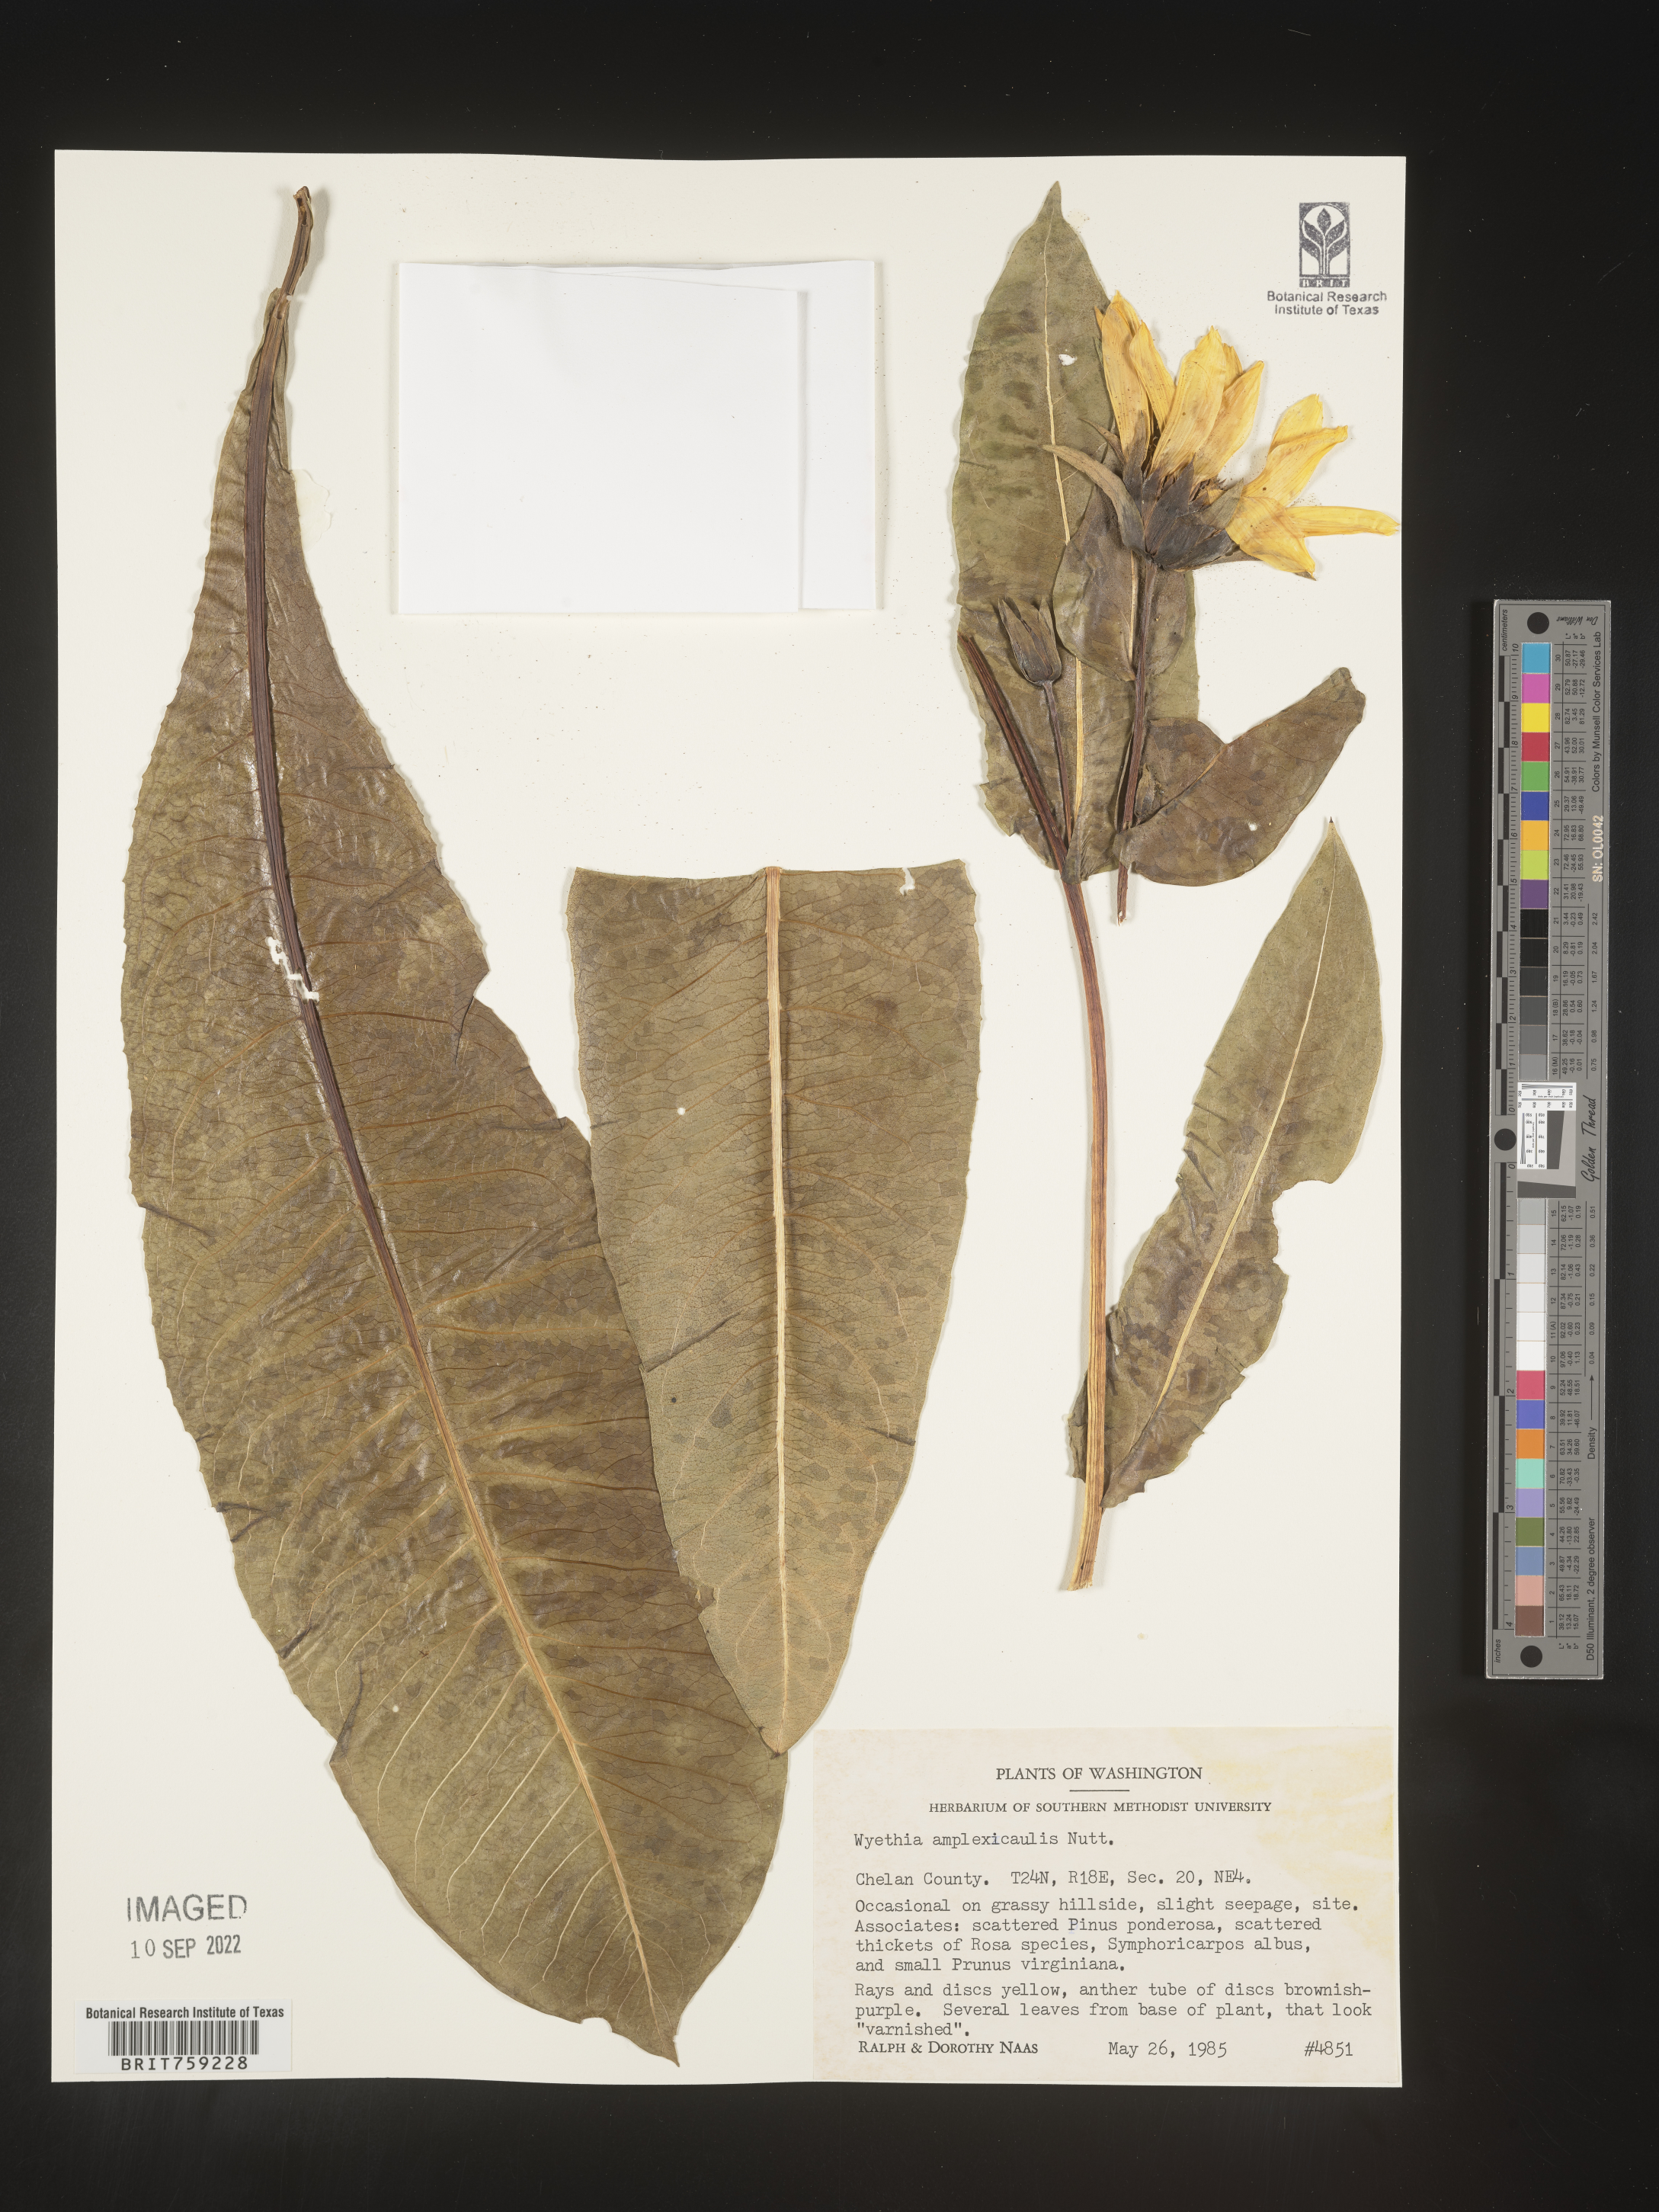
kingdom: Plantae
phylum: Tracheophyta
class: Magnoliopsida
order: Asterales
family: Asteraceae
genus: Wyethia
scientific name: Wyethia amplexicaulis
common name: Northern mule's-ears
